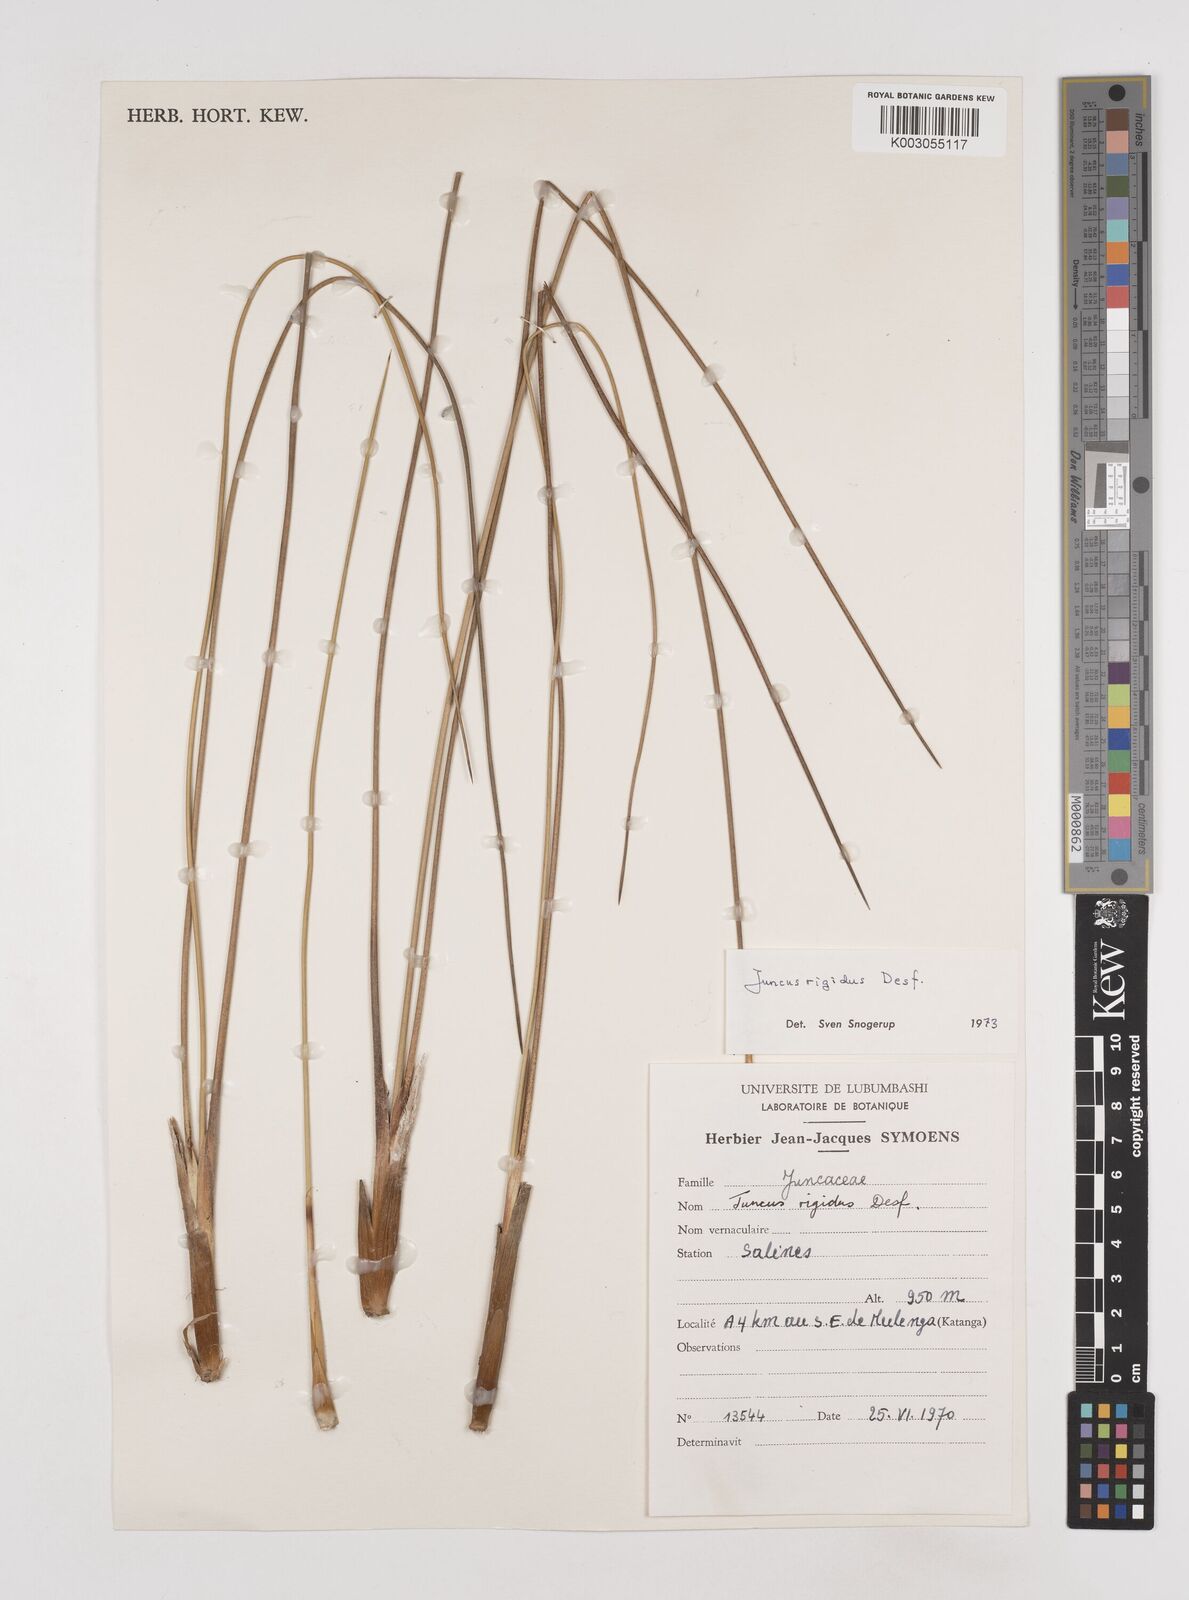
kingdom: Plantae
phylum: Tracheophyta
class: Liliopsida
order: Poales
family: Juncaceae
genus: Juncus
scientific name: Juncus rigidus
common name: Hard sea rush
